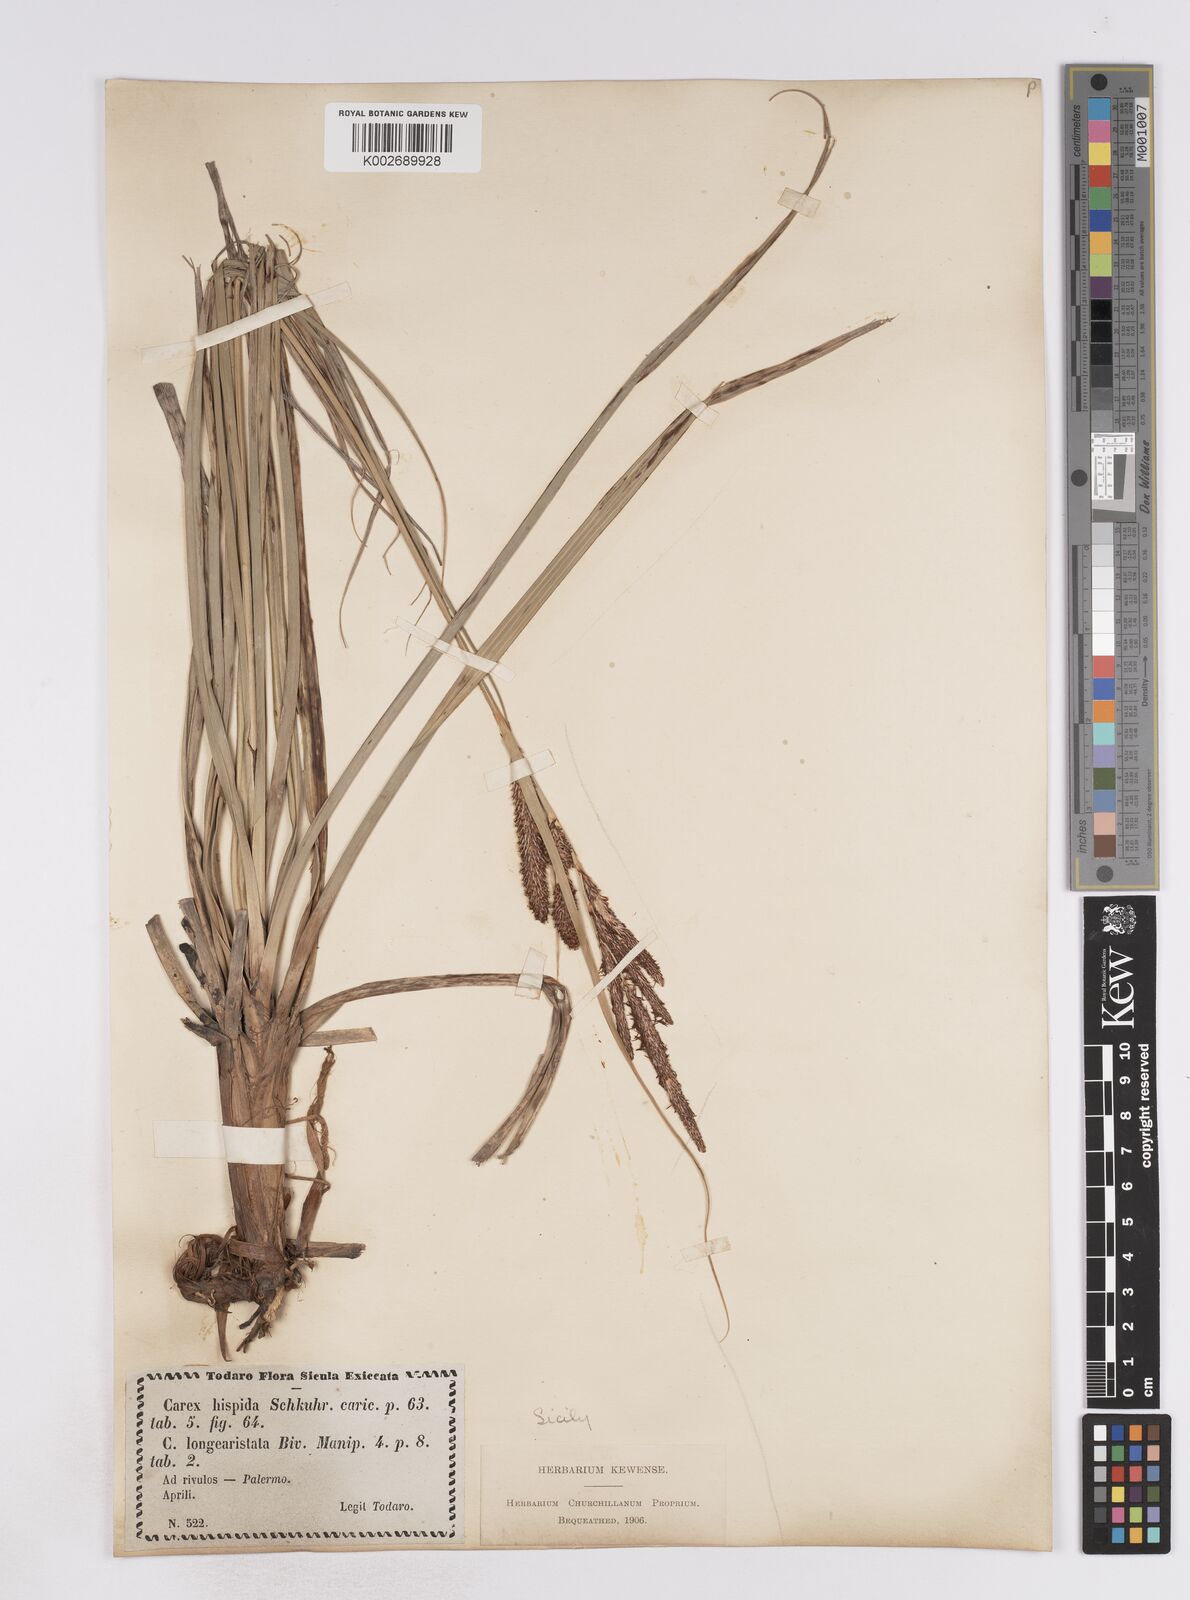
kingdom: Plantae
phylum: Tracheophyta
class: Liliopsida
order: Poales
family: Cyperaceae
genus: Carex
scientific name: Carex hispida
